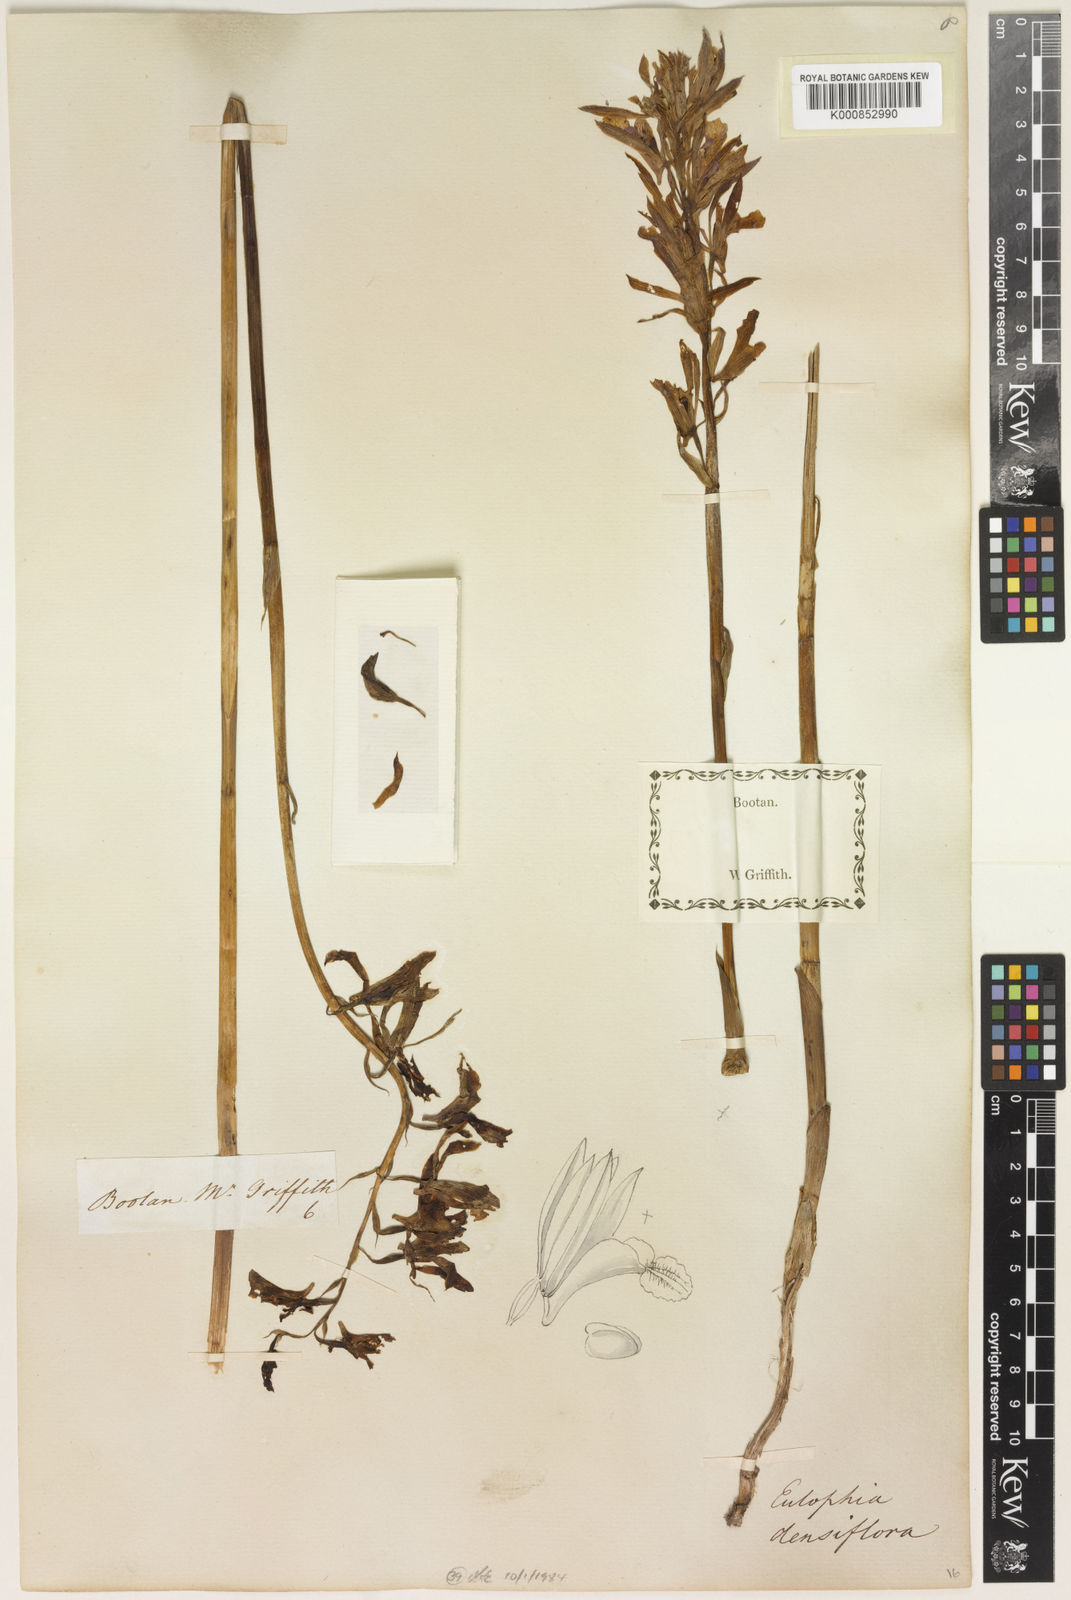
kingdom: Plantae
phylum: Tracheophyta
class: Liliopsida
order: Asparagales
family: Orchidaceae
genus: Eulophia
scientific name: Eulophia densiflora
